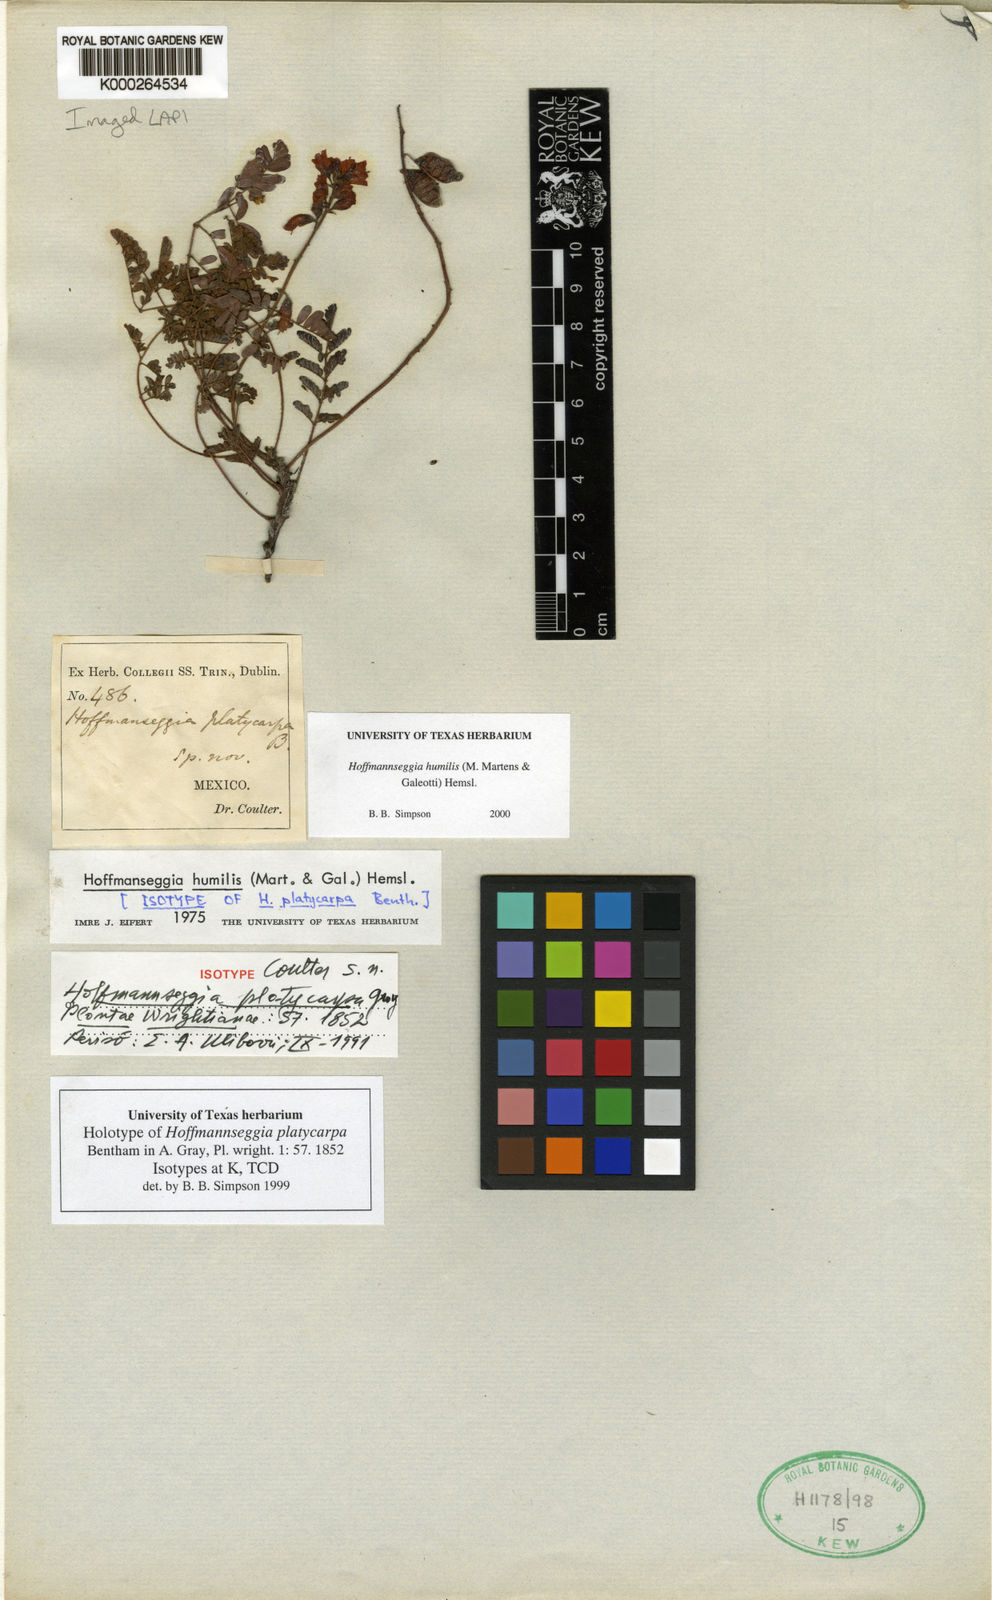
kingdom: Plantae
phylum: Tracheophyta
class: Magnoliopsida
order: Fabales
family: Fabaceae
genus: Hoffmannseggia
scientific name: Hoffmannseggia
